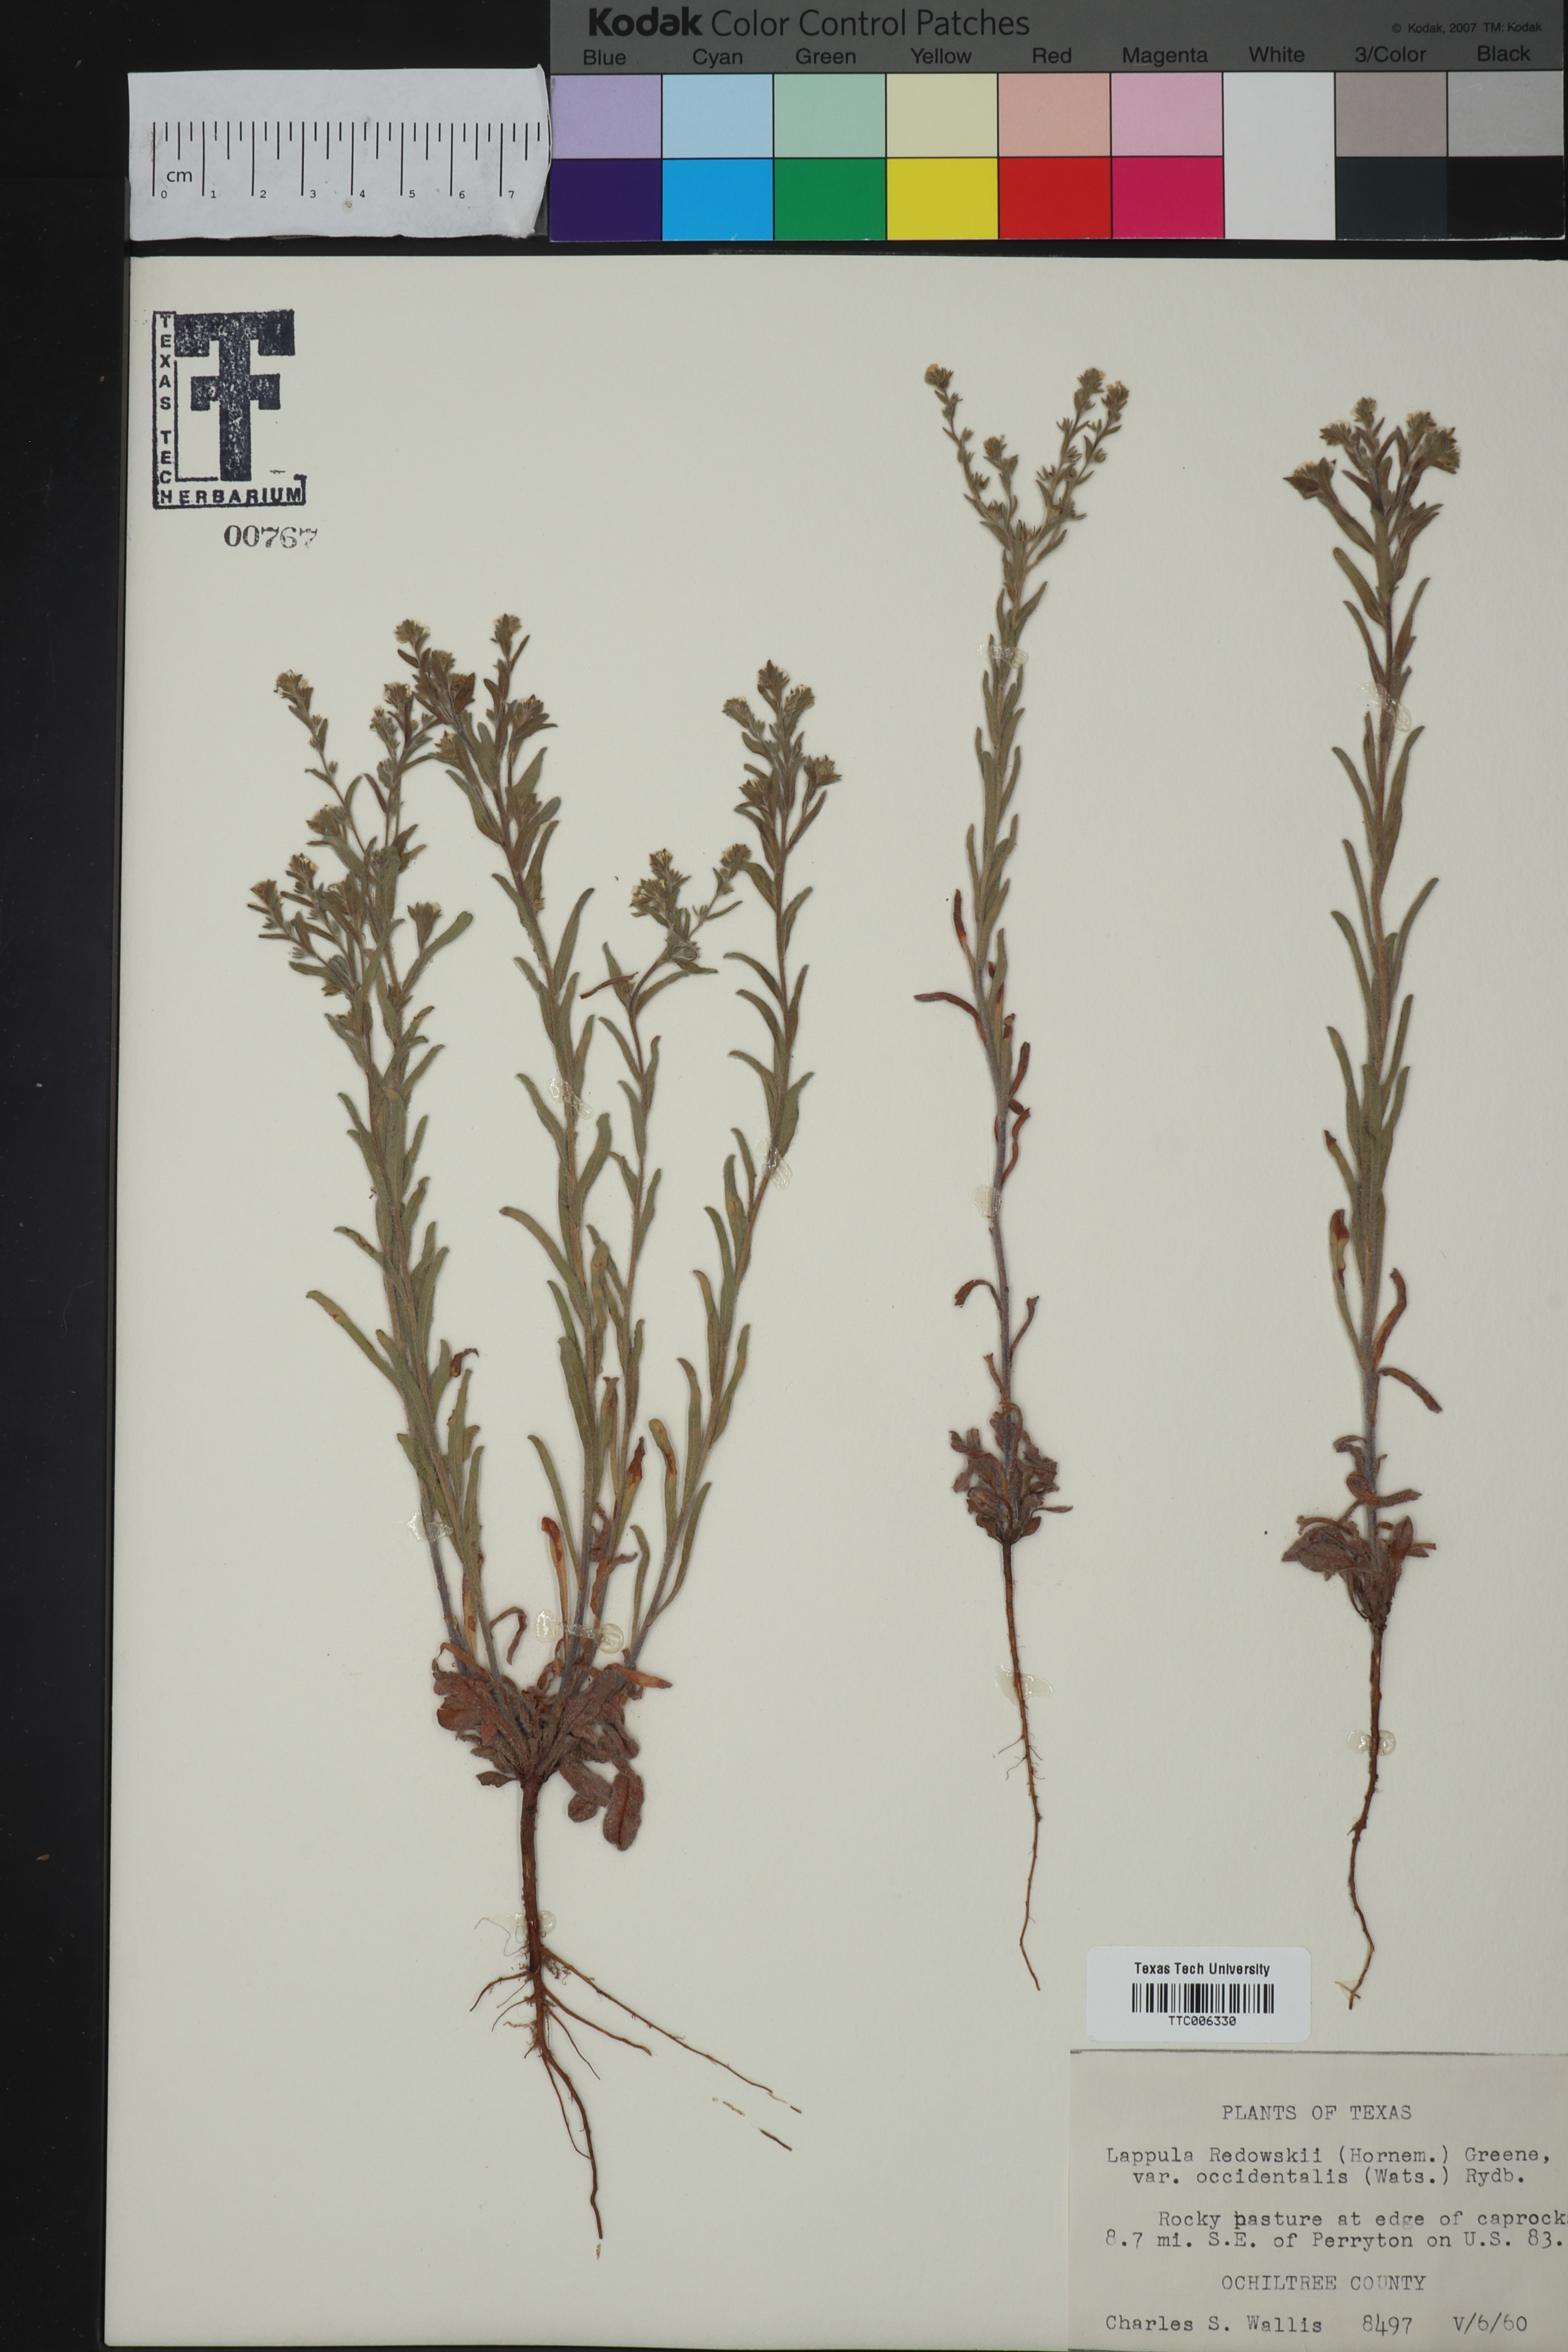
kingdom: Plantae
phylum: Tracheophyta
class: Magnoliopsida
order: Boraginales
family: Boraginaceae
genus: Lappula
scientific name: Lappula occidentalis
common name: Western stickseed
